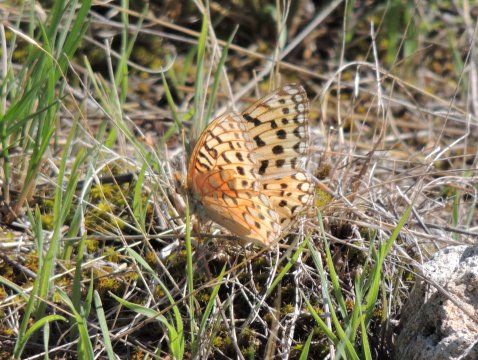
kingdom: Animalia
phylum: Arthropoda
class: Insecta
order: Lepidoptera
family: Nymphalidae
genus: Speyeria
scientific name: Speyeria coronis
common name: Coronis Fritillary
